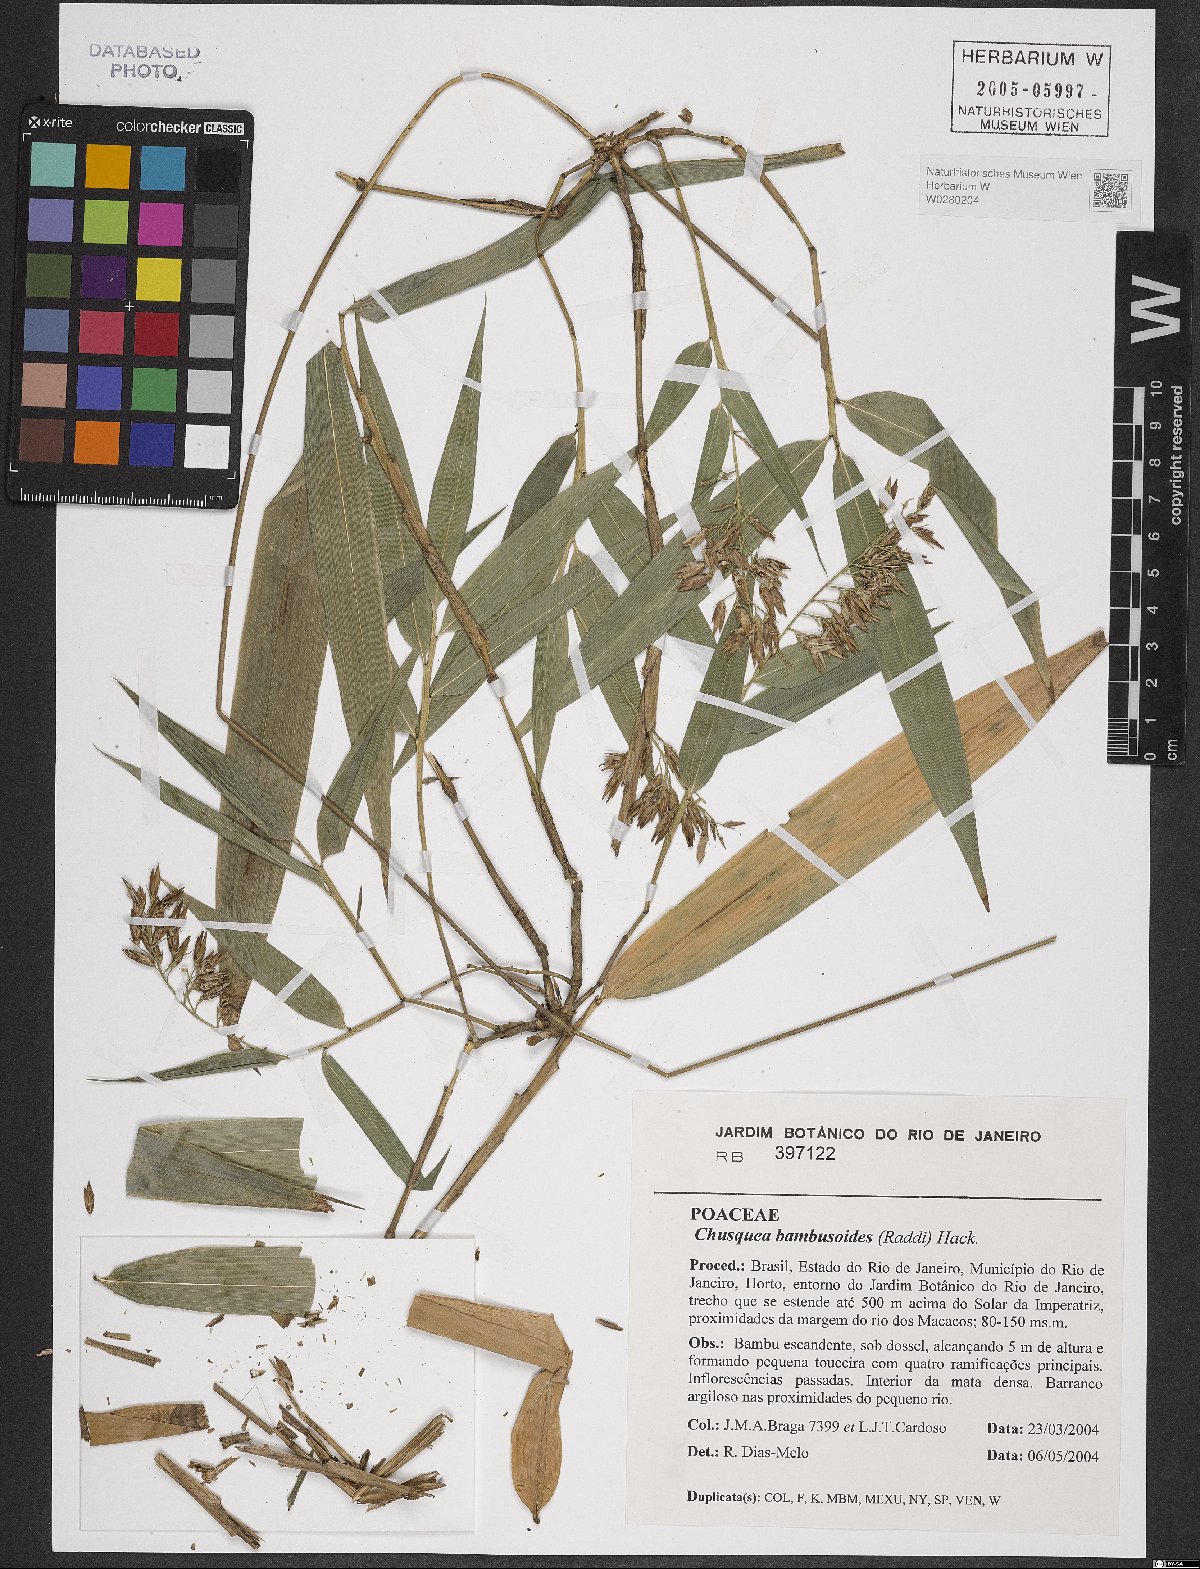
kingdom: Plantae
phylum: Tracheophyta
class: Liliopsida
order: Poales
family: Poaceae
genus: Chusquea
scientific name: Chusquea bambusoides
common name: Brazil scrambling bamboo
